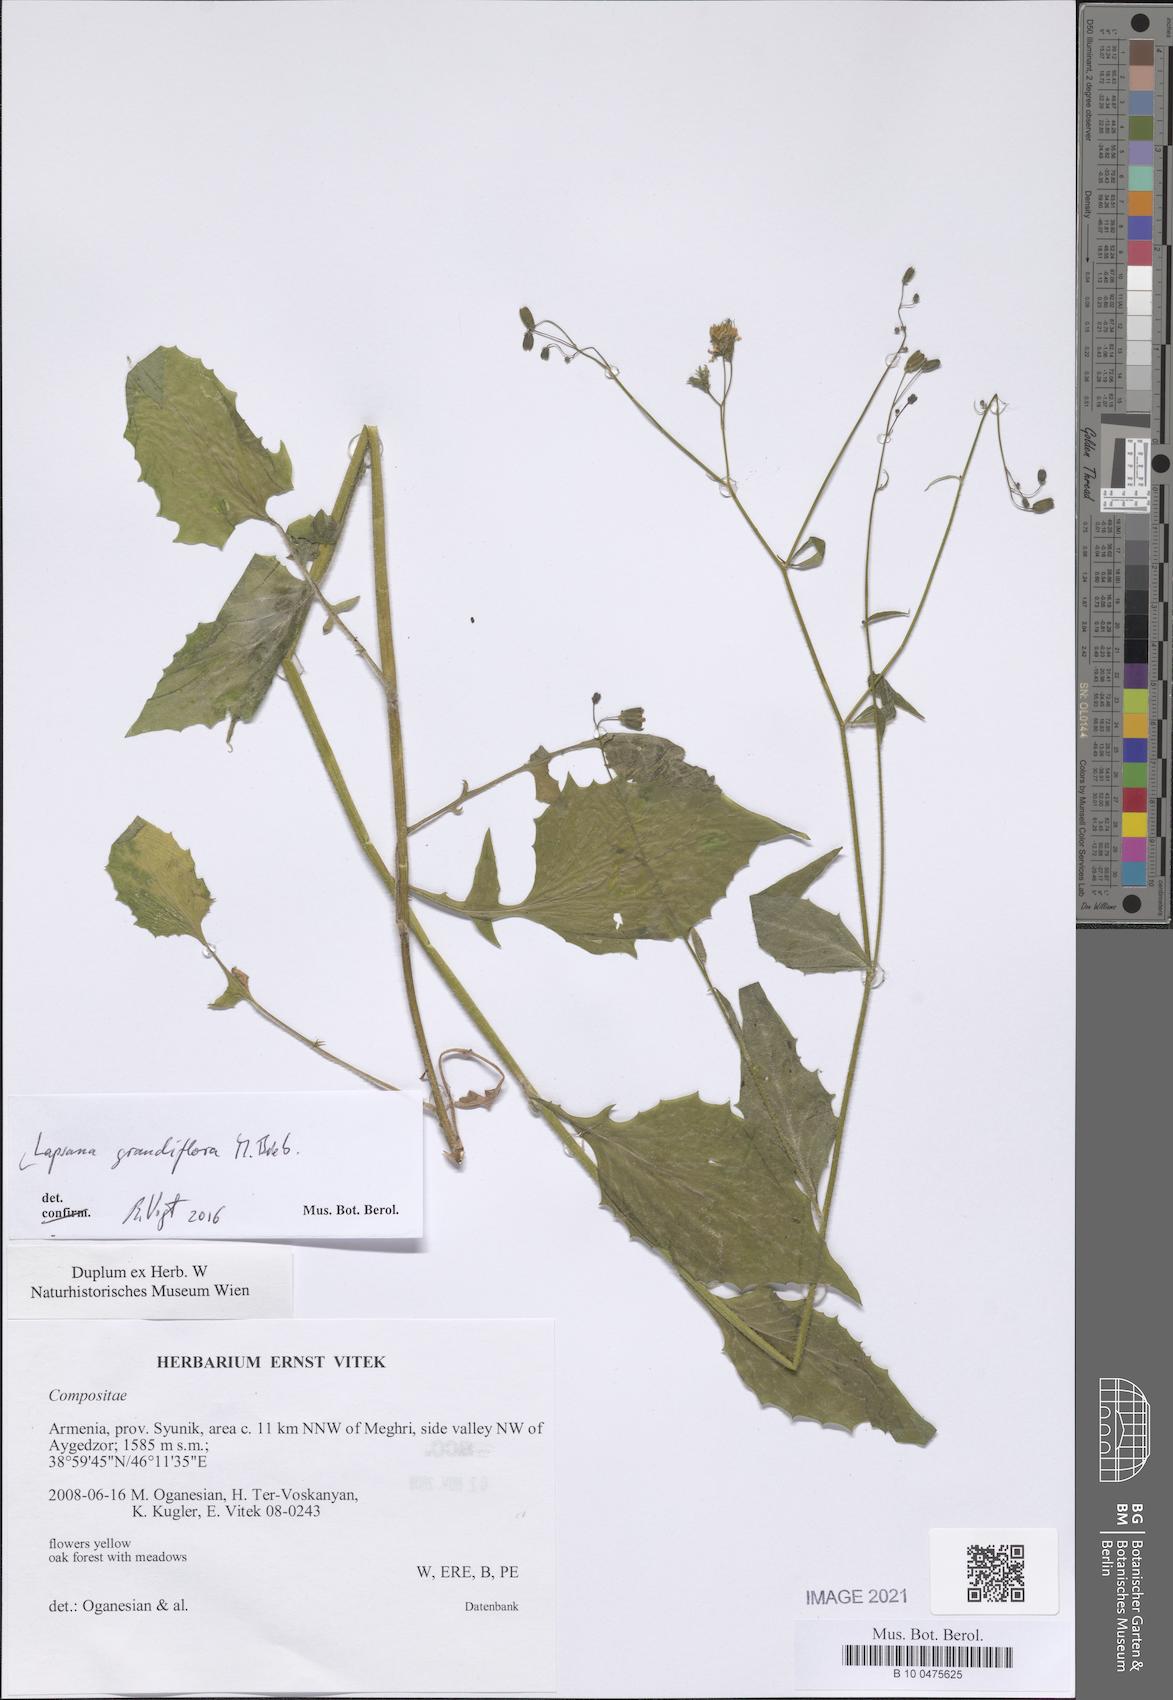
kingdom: Plantae
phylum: Tracheophyta
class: Magnoliopsida
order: Asterales
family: Asteraceae
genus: Lapsana
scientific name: Lapsana communis
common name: Nipplewort
